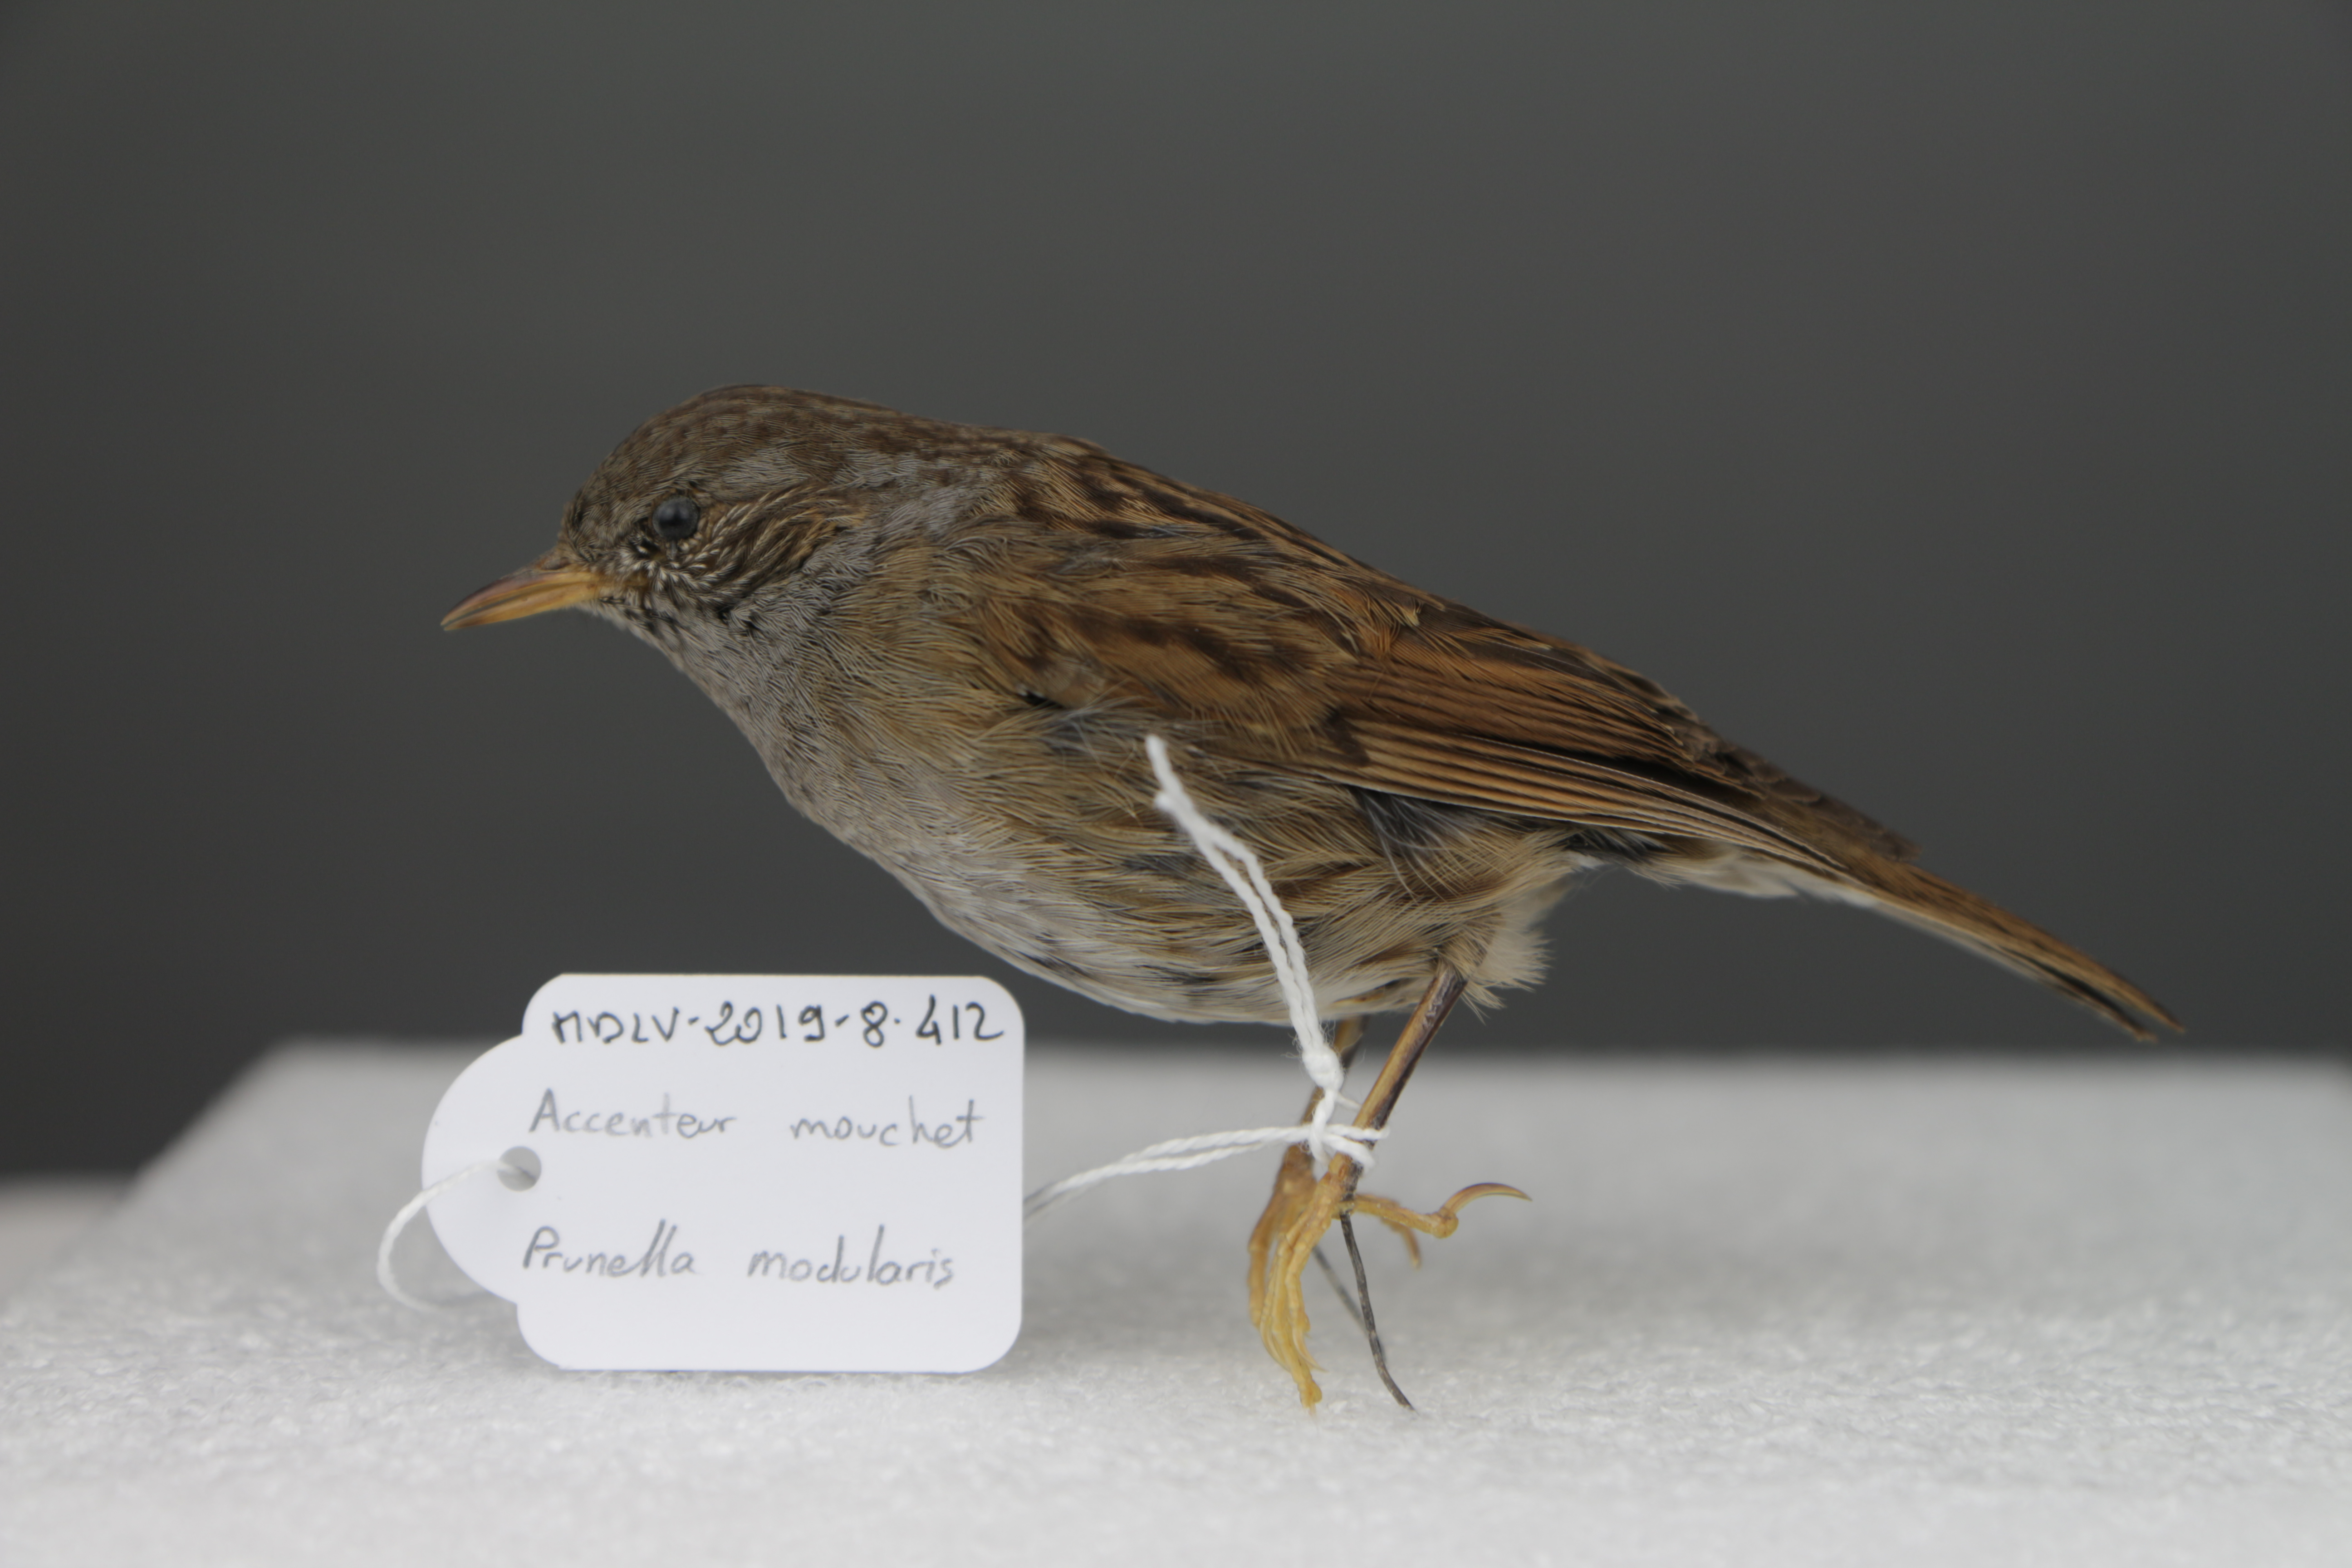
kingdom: Animalia
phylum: Chordata
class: Aves
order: Passeriformes
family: Prunellidae
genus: Prunella
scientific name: Prunella modularis
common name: Dunnock
